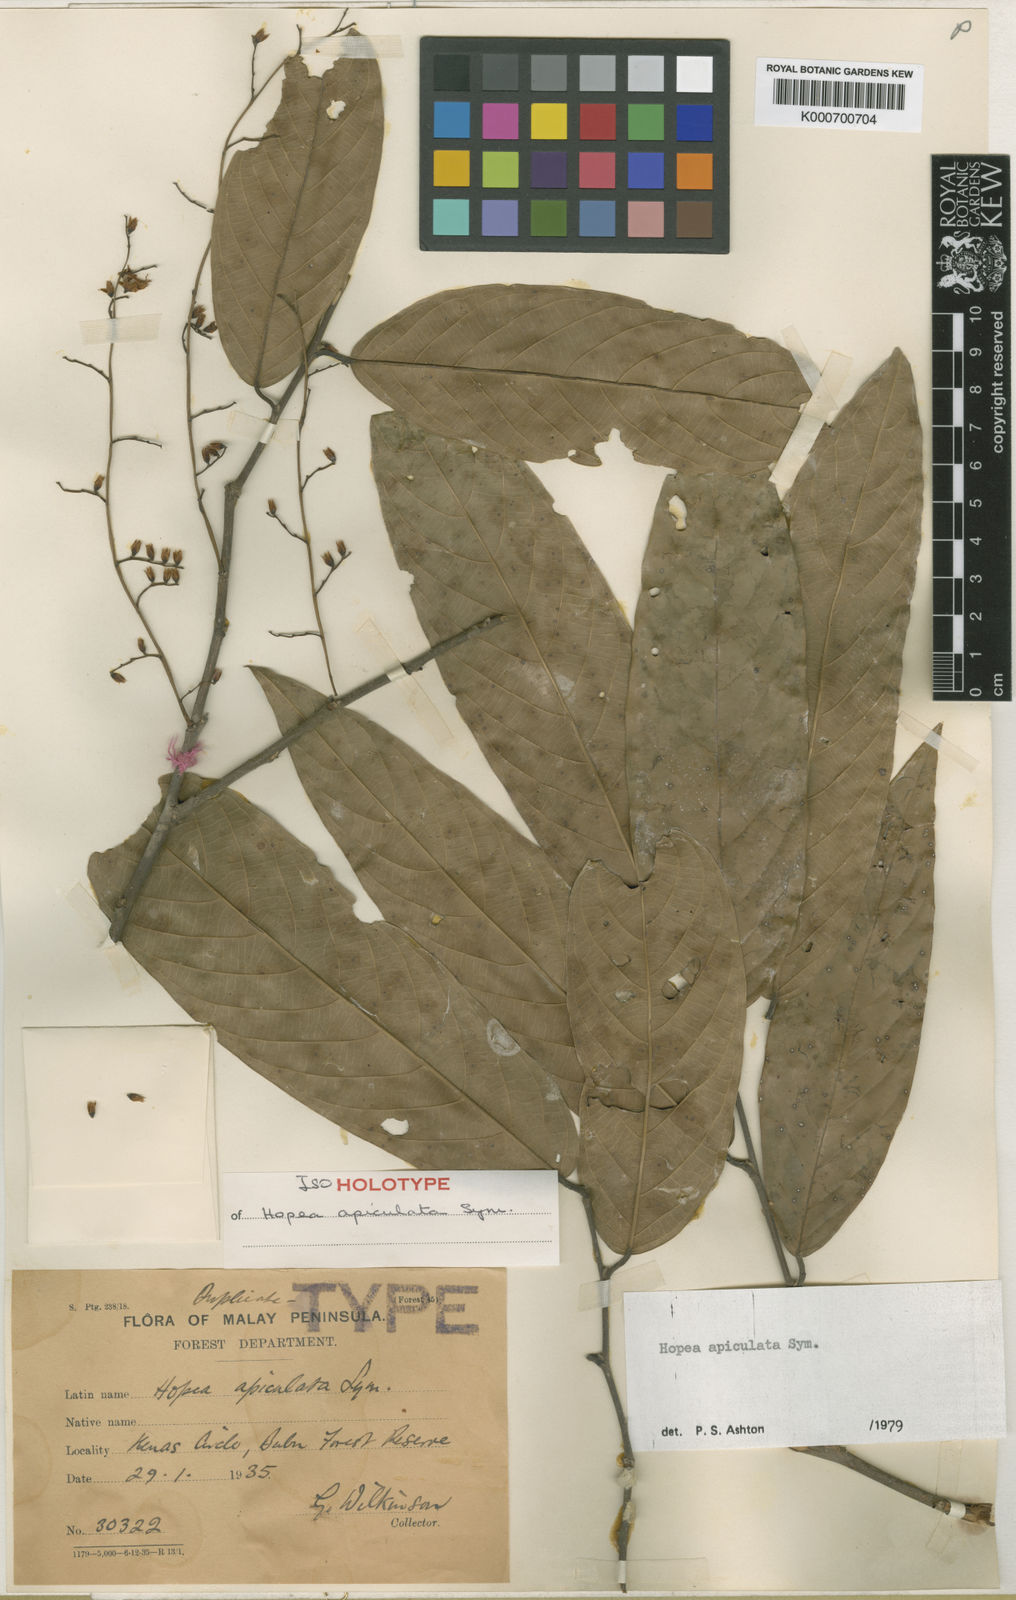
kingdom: Plantae
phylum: Tracheophyta
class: Magnoliopsida
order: Malvales
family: Dipterocarpaceae
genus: Hopea
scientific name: Hopea apiculata
